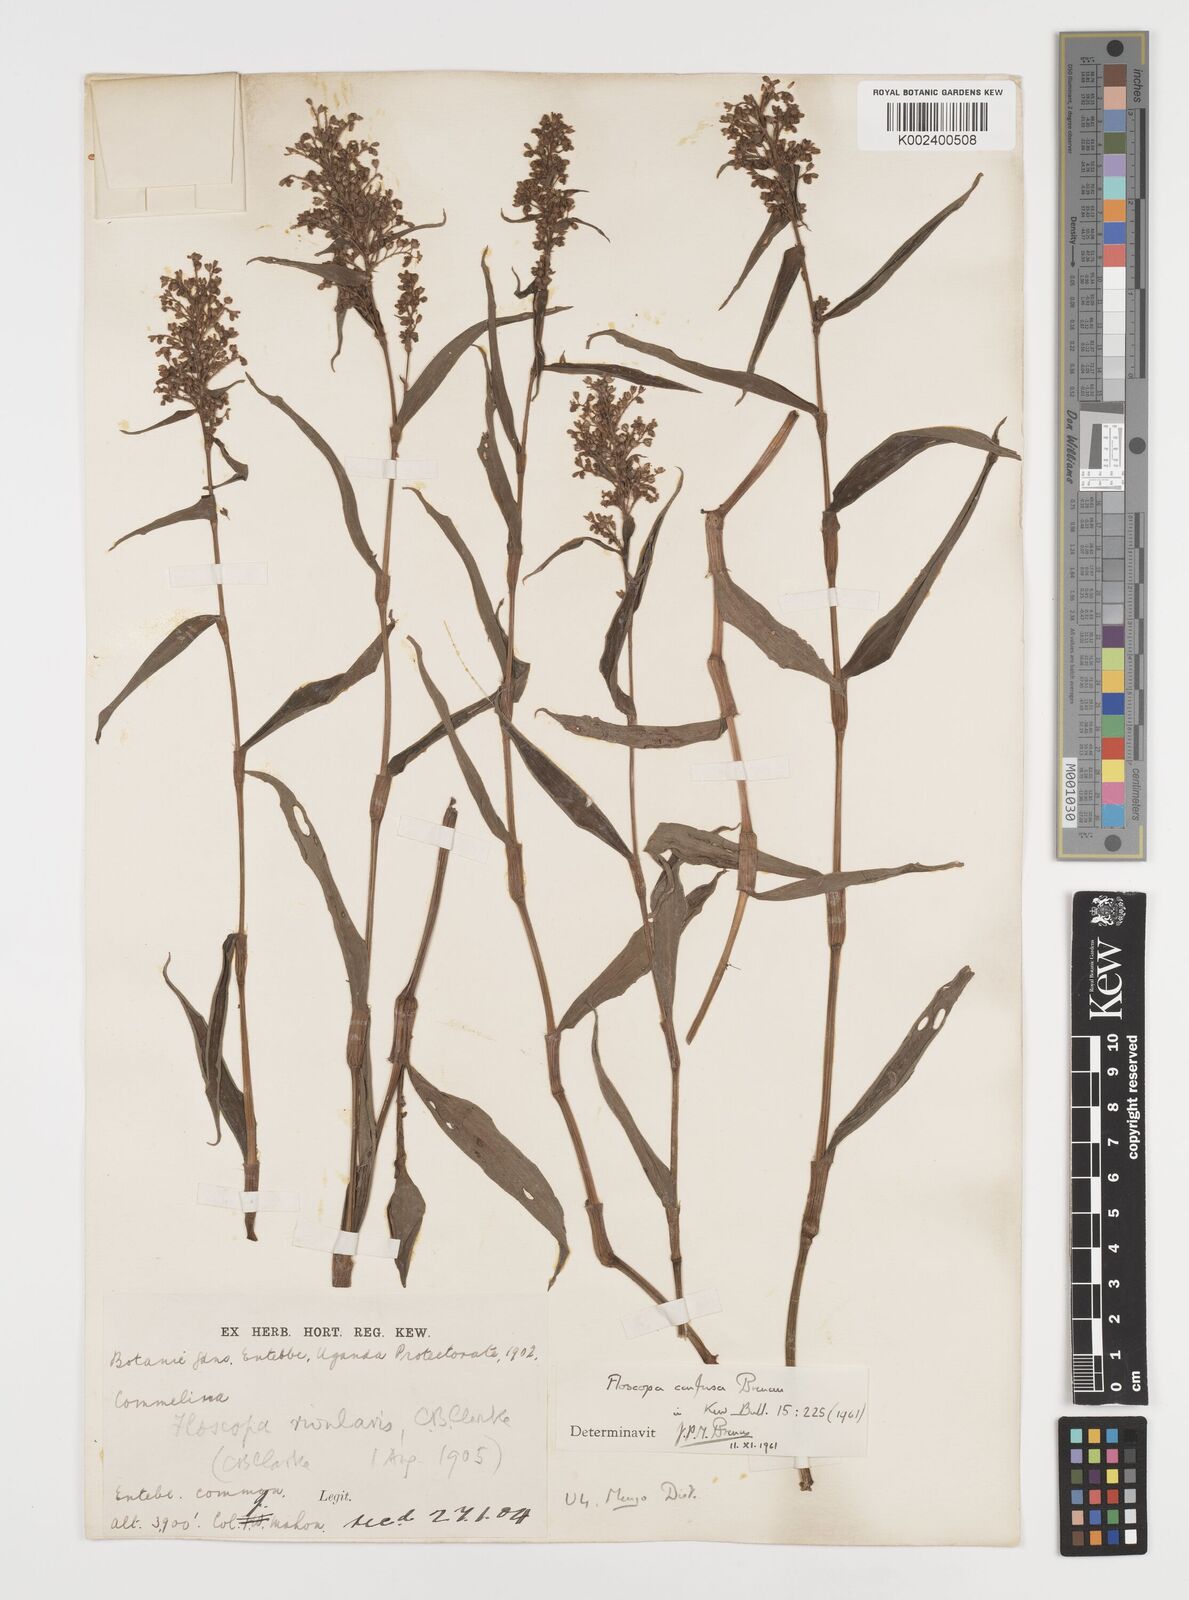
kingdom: Plantae
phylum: Tracheophyta
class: Liliopsida
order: Commelinales
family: Commelinaceae
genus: Floscopa
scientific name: Floscopa confusa
